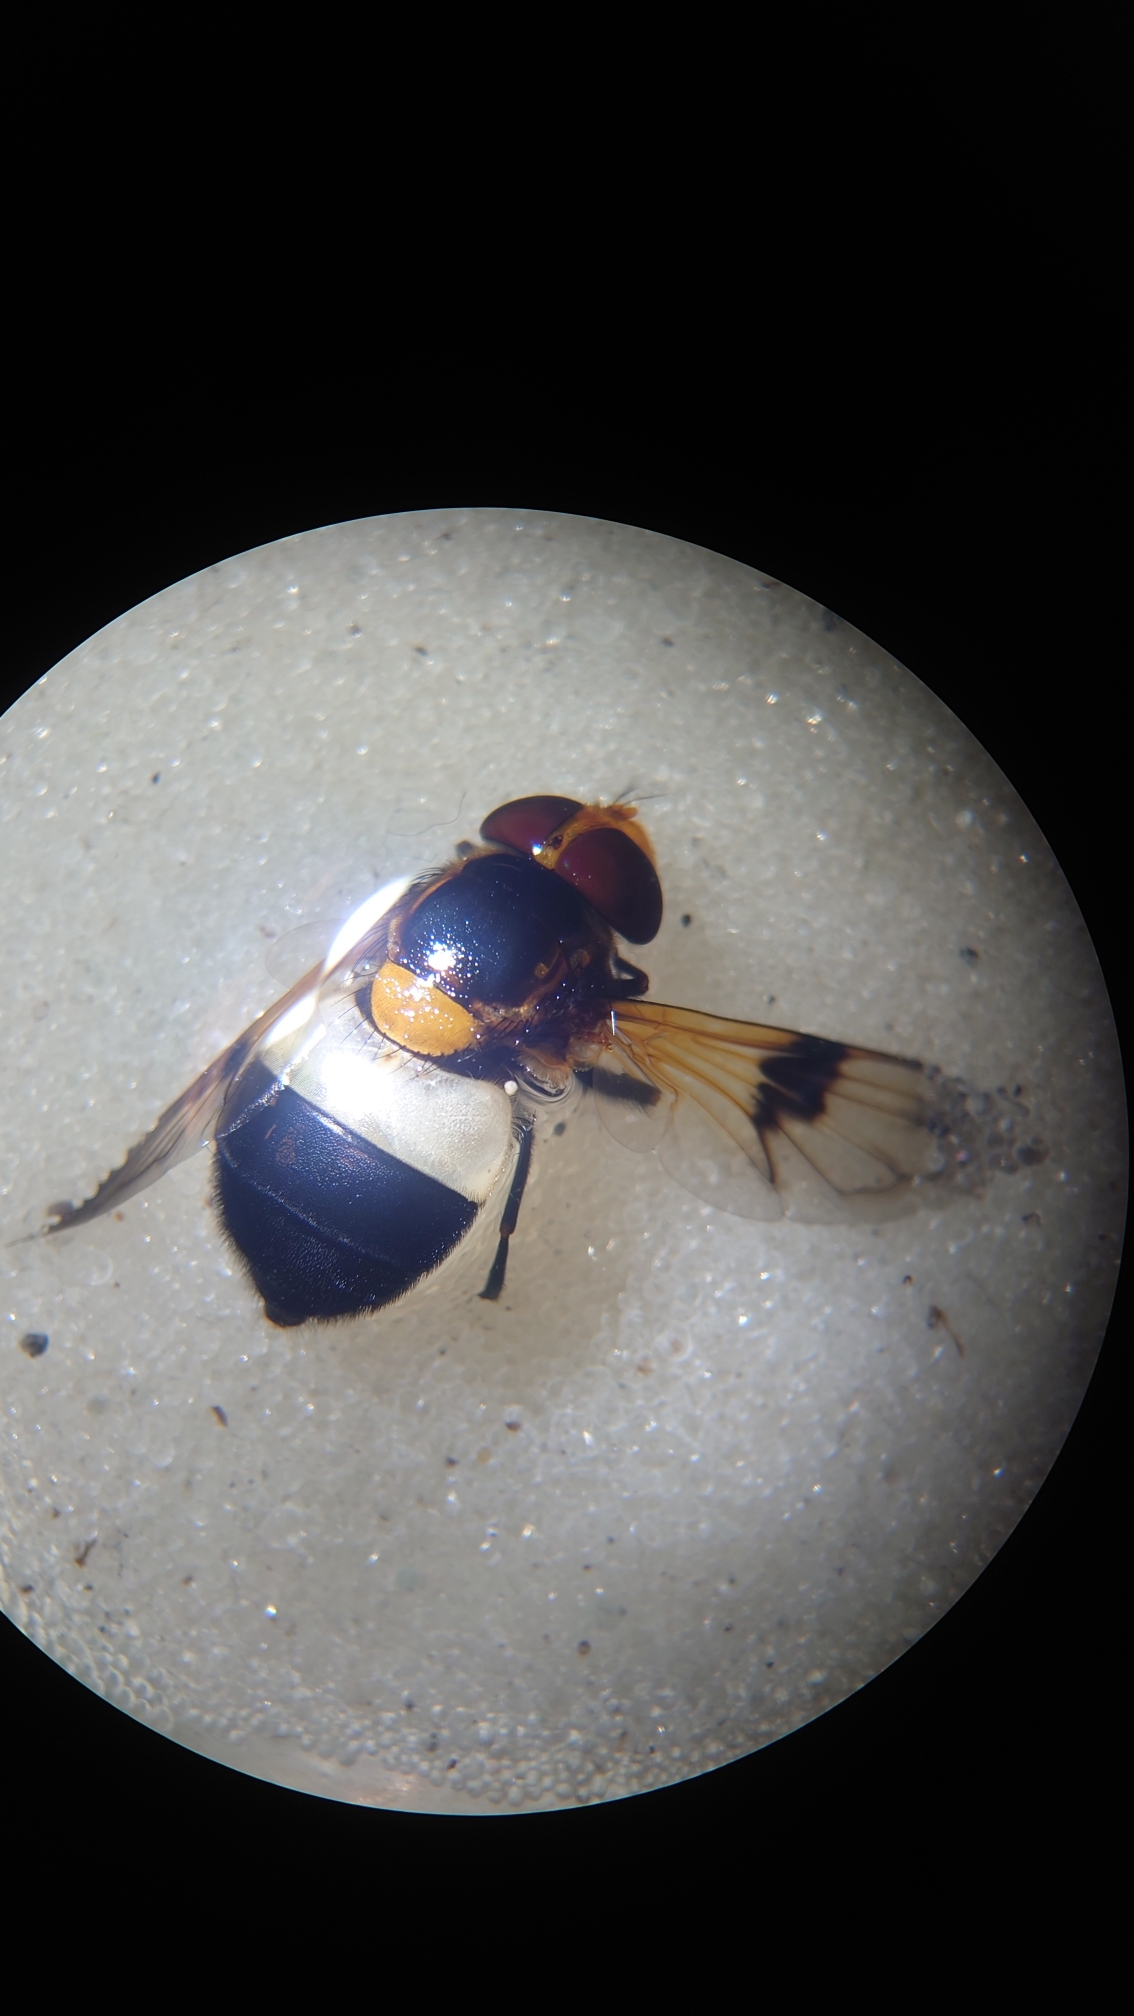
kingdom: Animalia
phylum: Arthropoda
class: Insecta
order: Diptera
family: Syrphidae
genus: Volucella
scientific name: Volucella pellucens
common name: Hvidbåndet humlesvirreflue
